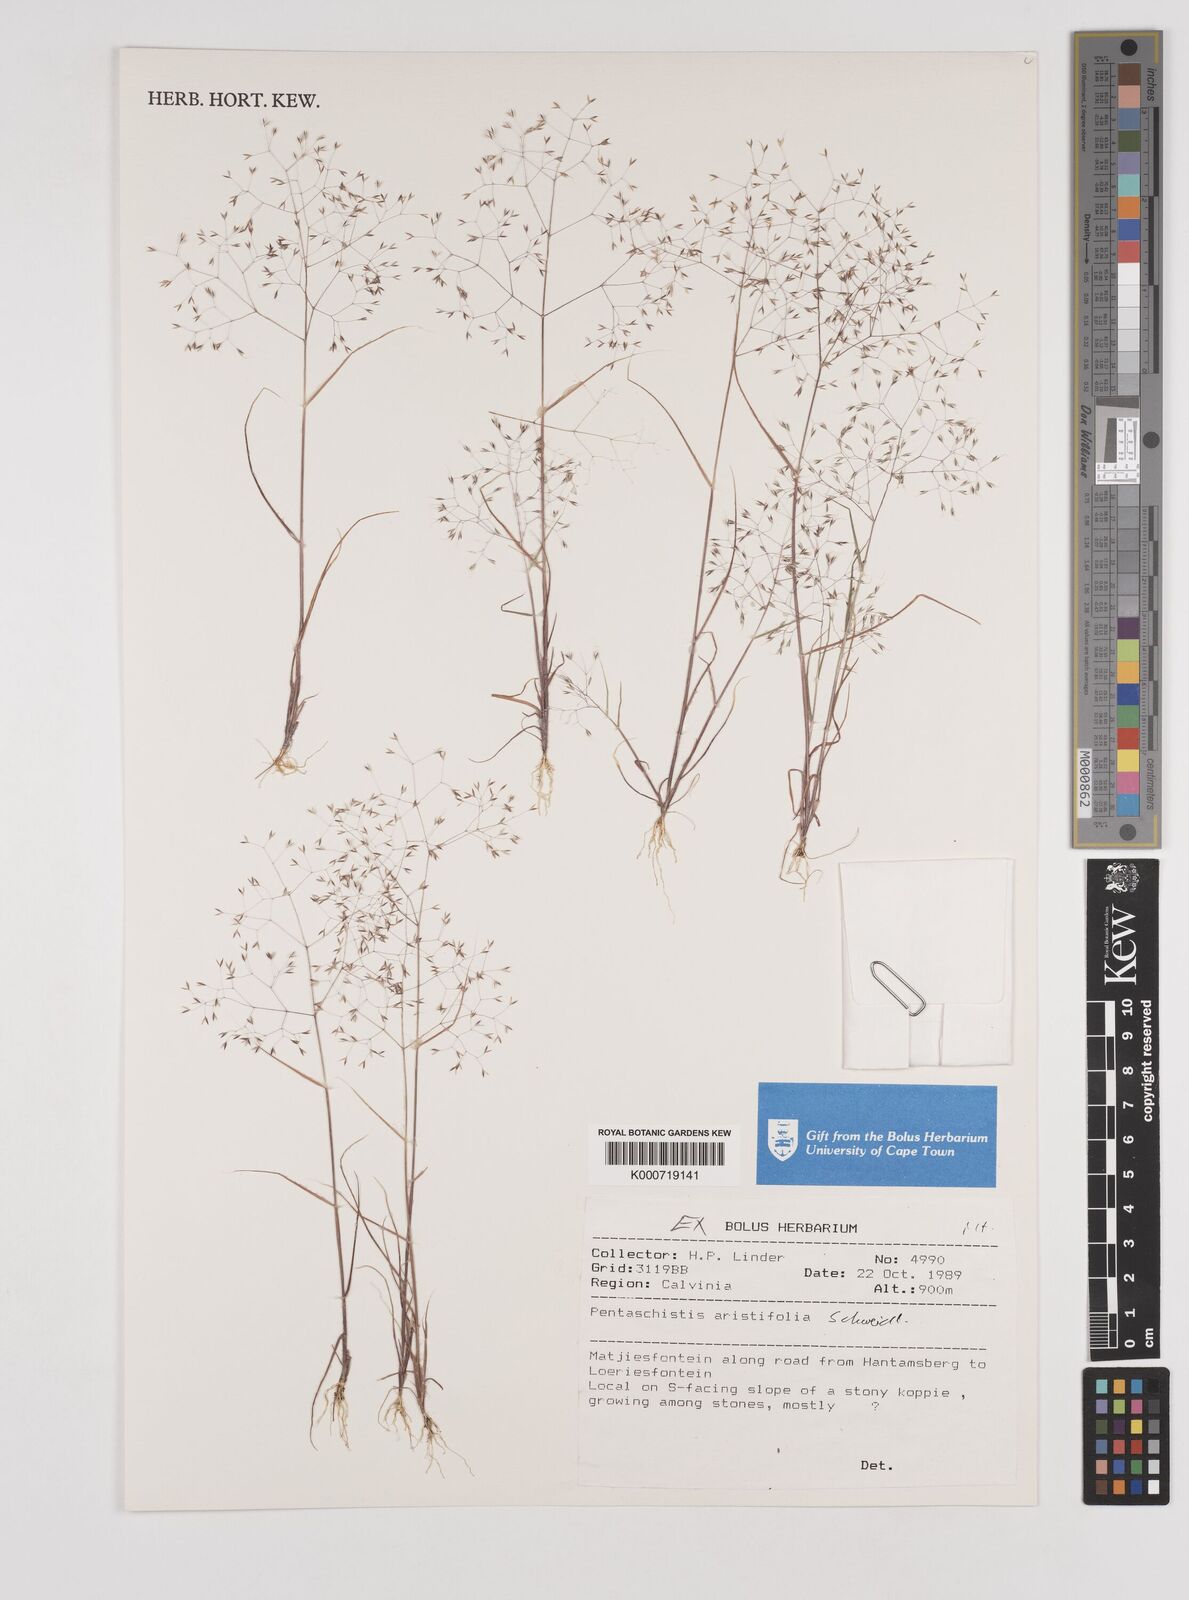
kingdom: Plantae
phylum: Tracheophyta
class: Liliopsida
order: Poales
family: Poaceae
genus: Pentameris
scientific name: Pentameris aristifolia
